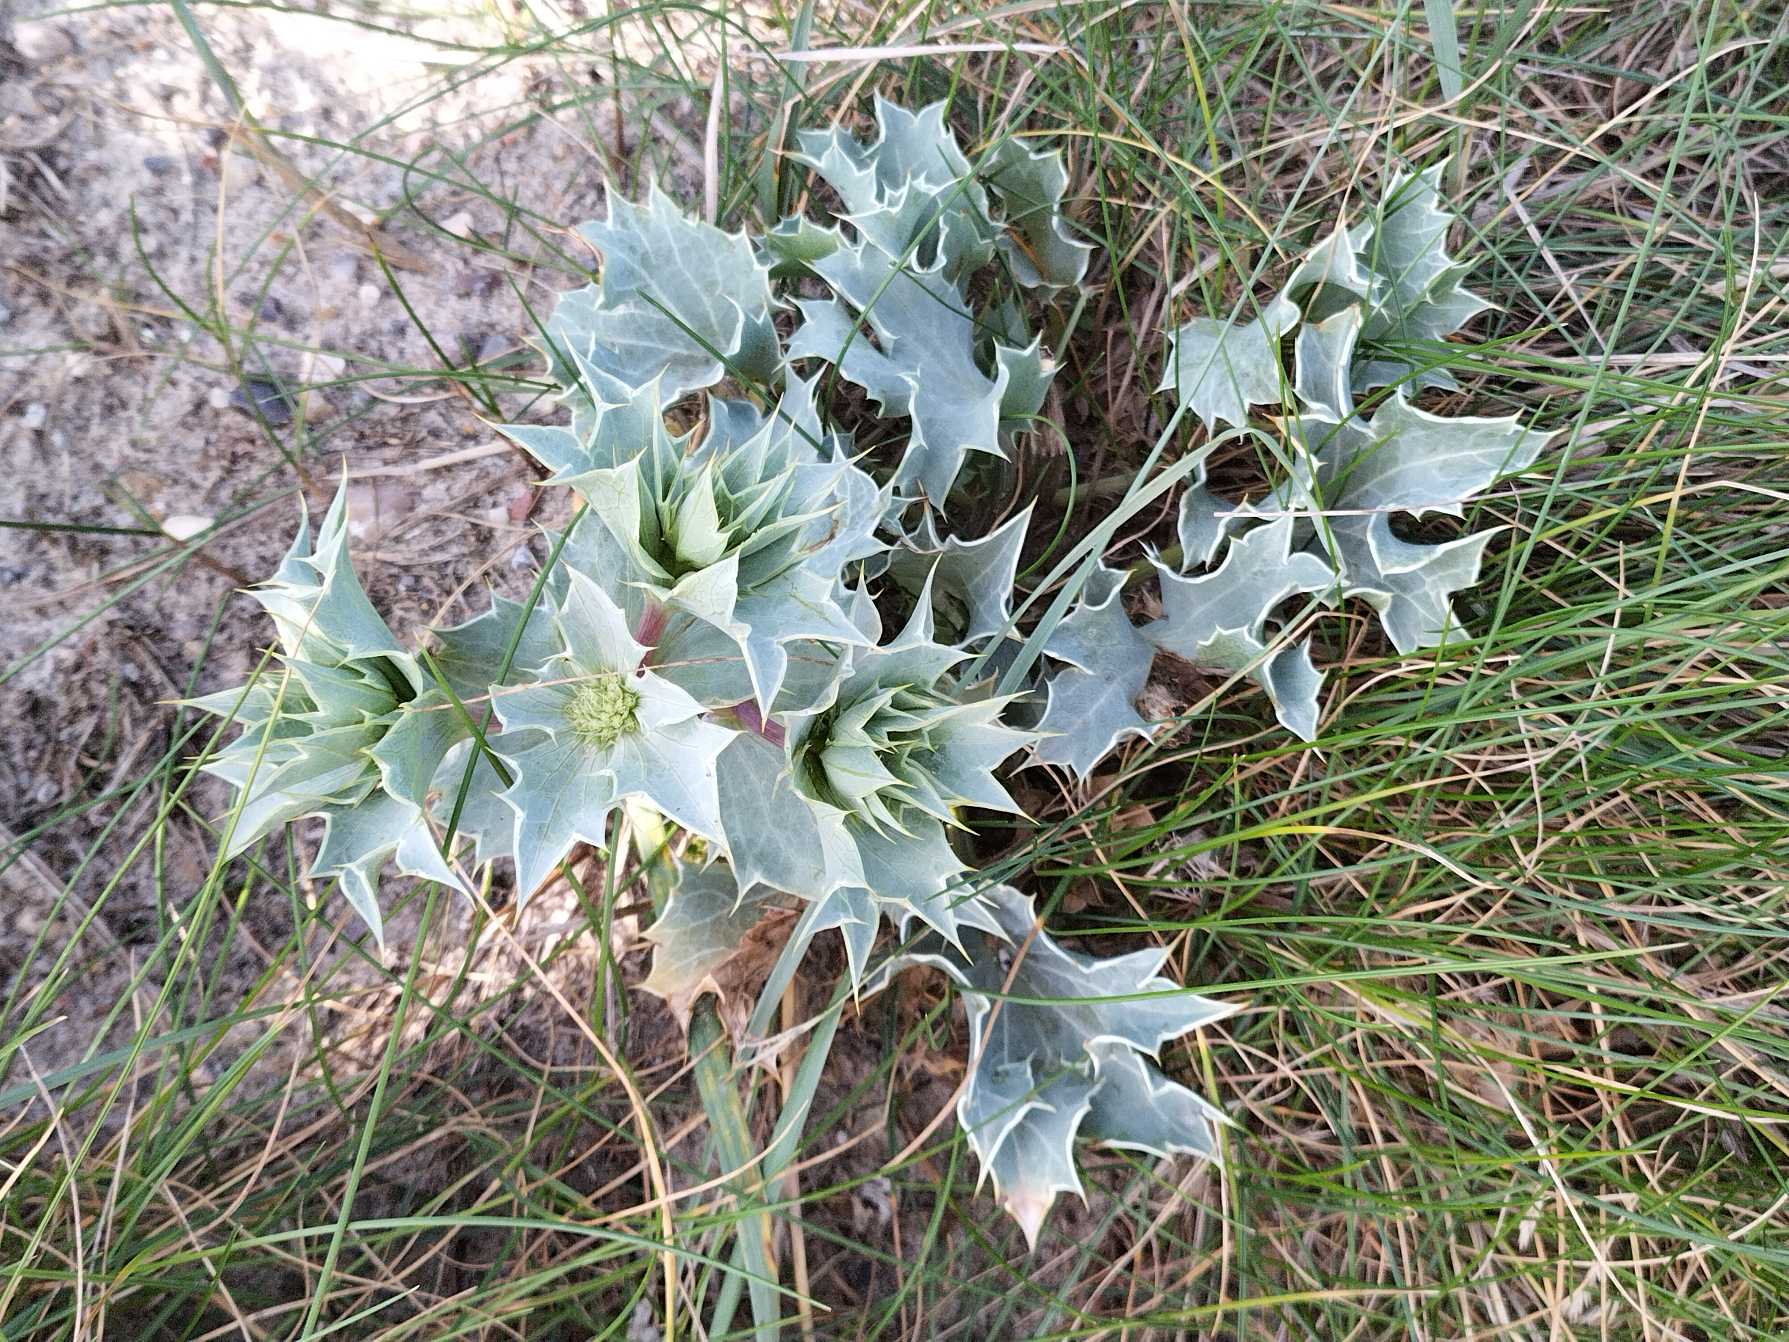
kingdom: Plantae
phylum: Tracheophyta
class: Magnoliopsida
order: Apiales
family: Apiaceae
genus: Eryngium
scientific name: Eryngium maritimum
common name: Strand-mandstro
